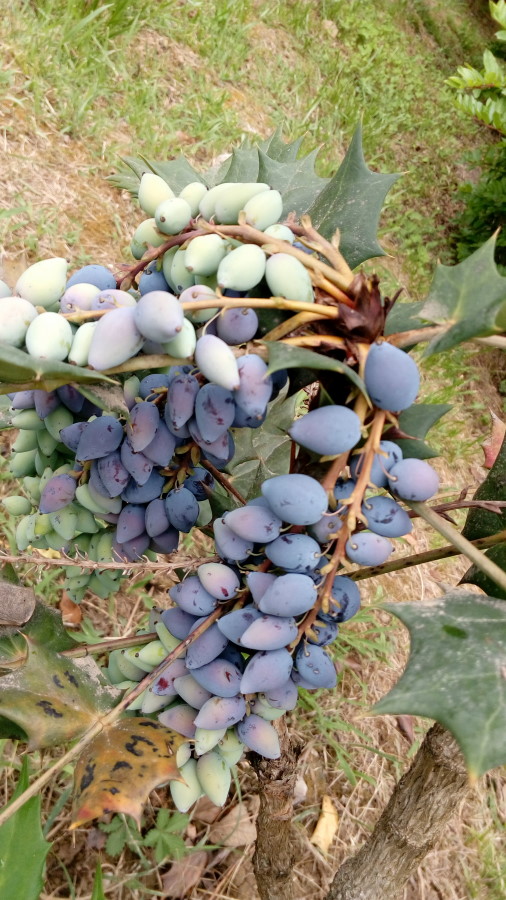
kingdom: Plantae
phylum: Tracheophyta
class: Magnoliopsida
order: Ranunculales
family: Berberidaceae
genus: Mahonia
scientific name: Mahonia aquifolium
